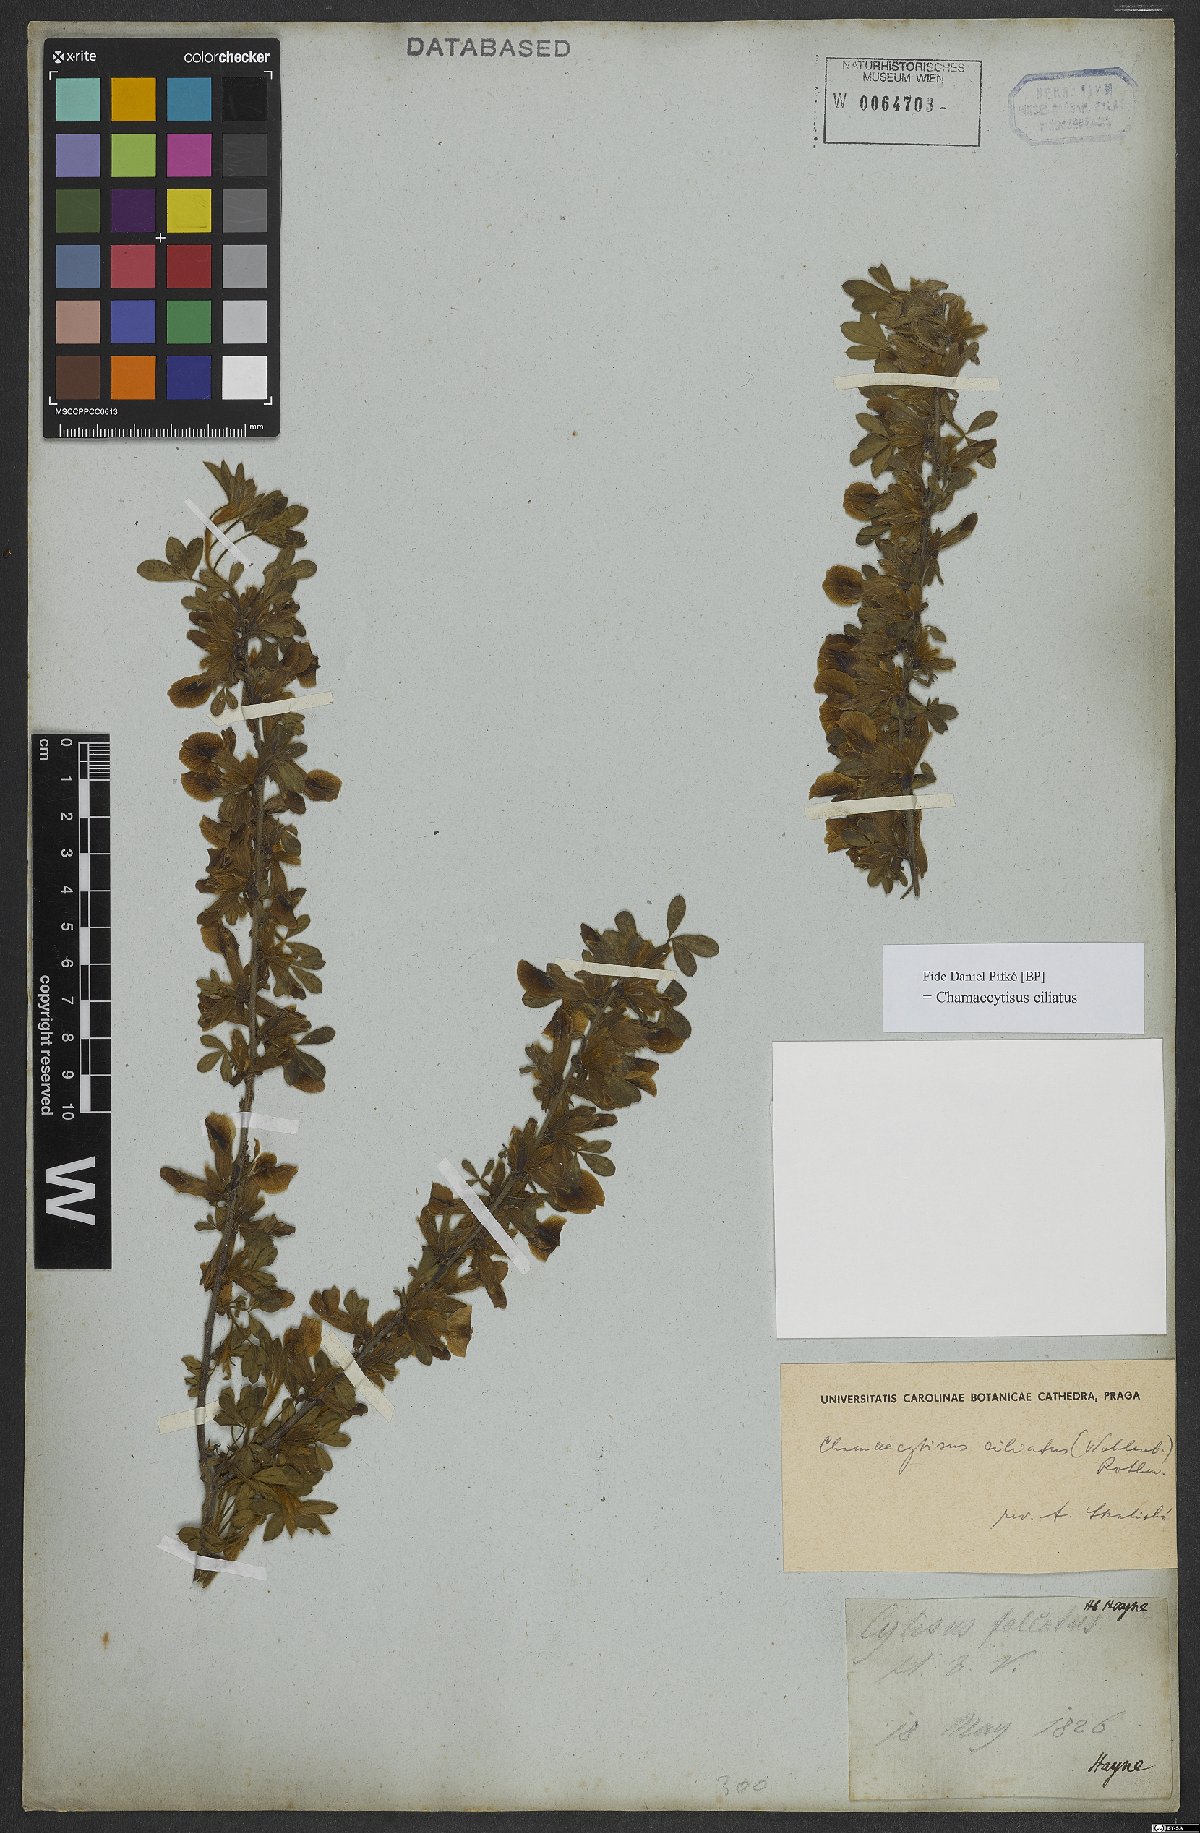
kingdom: Plantae
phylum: Tracheophyta
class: Magnoliopsida
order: Fabales
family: Fabaceae
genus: Chamaecytisus
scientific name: Chamaecytisus hirsutus
